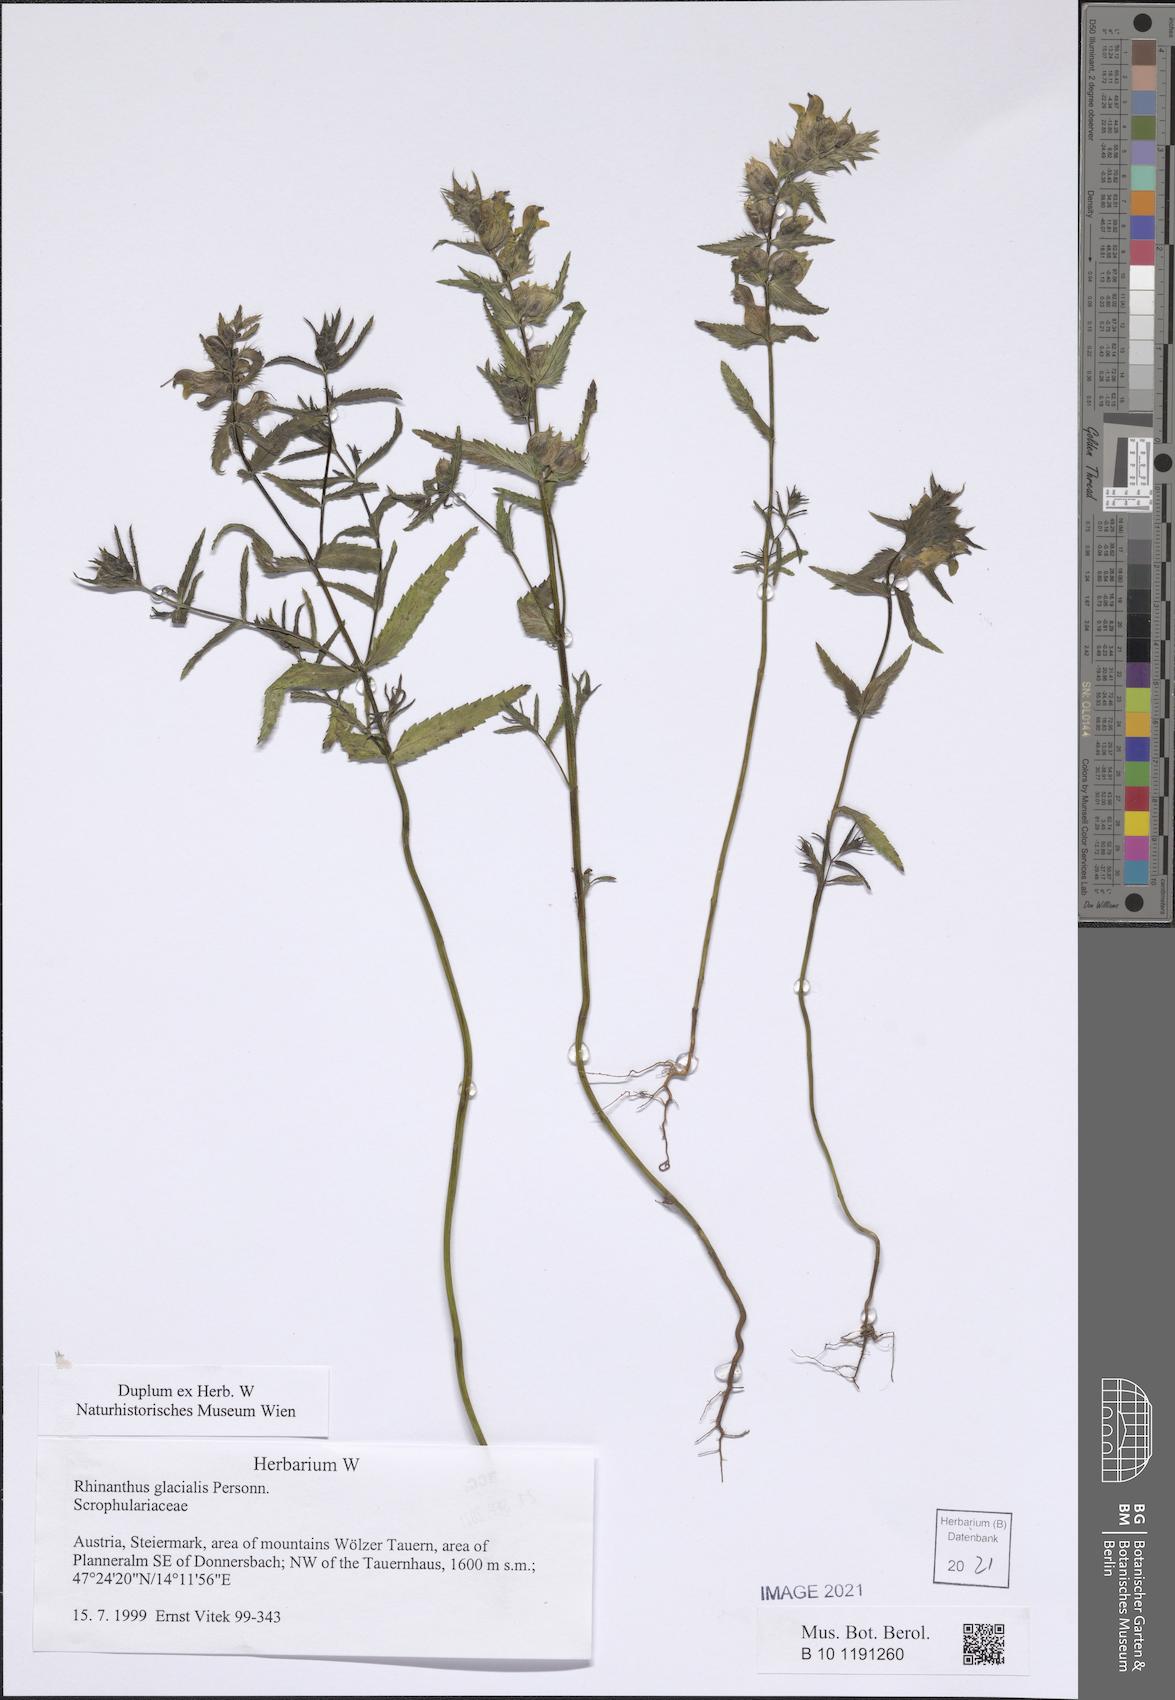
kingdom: Plantae
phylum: Tracheophyta
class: Magnoliopsida
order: Lamiales
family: Orobanchaceae
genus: Rhinanthus
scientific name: Rhinanthus glacialis
